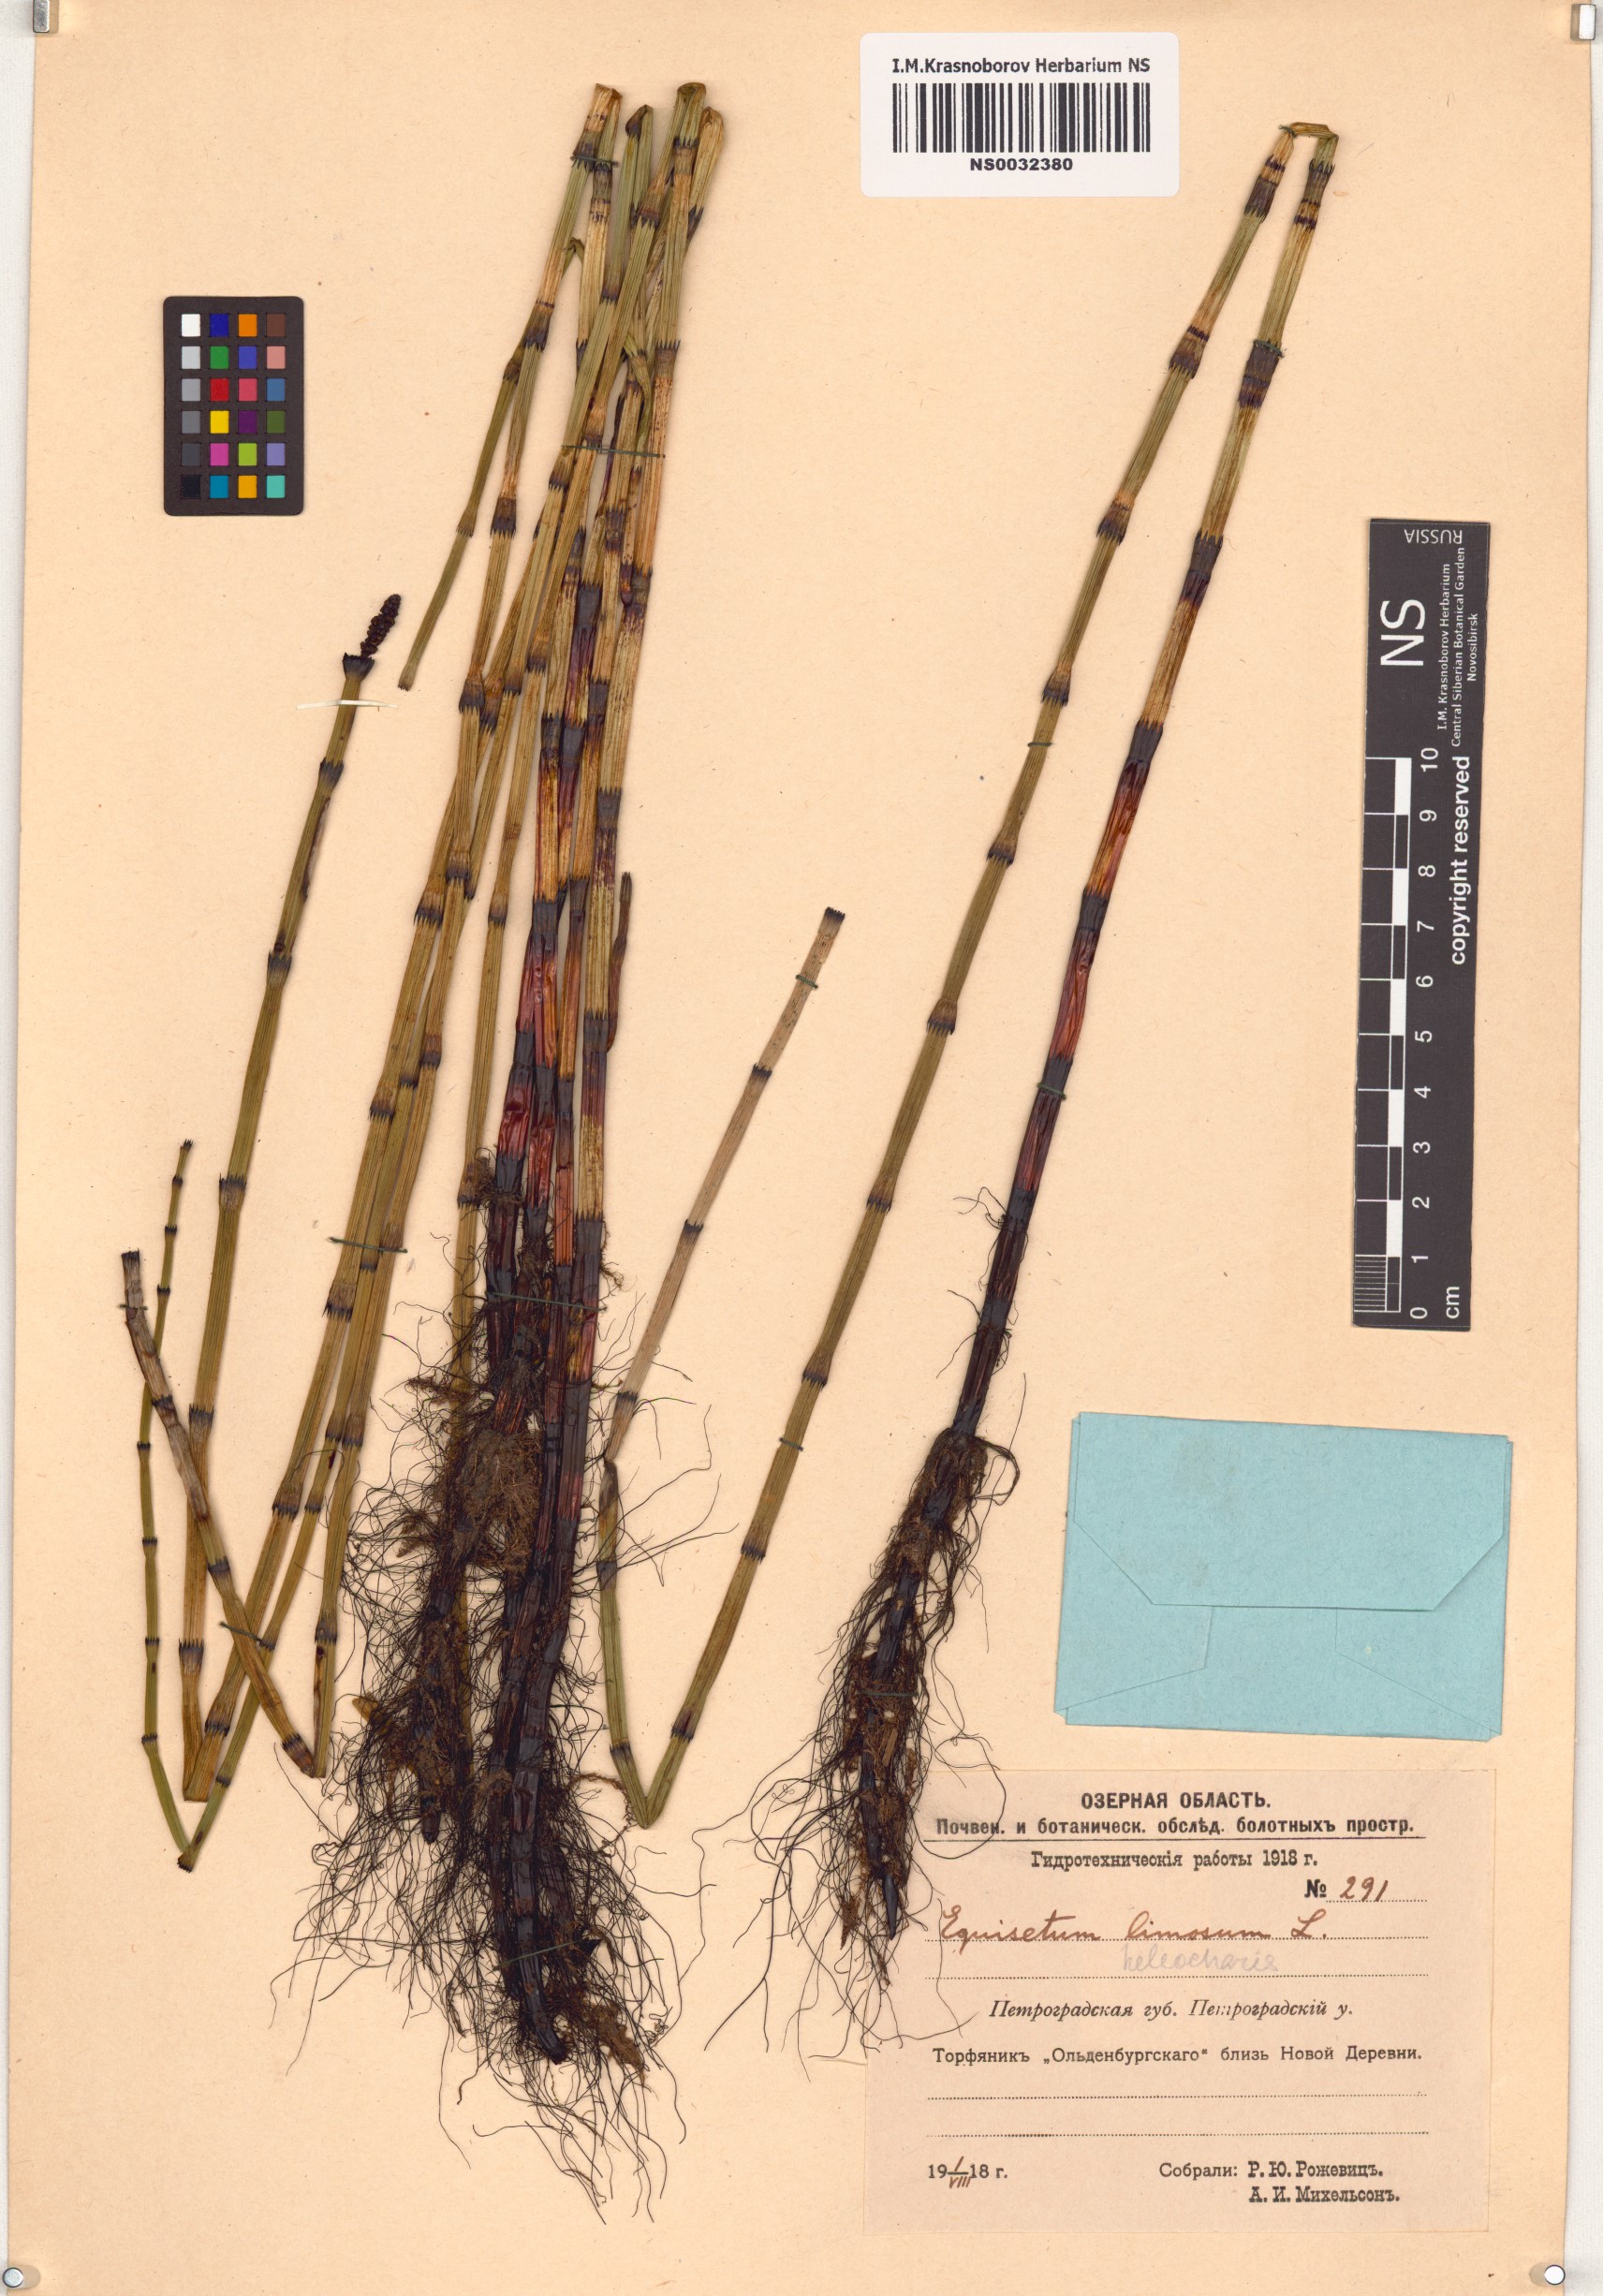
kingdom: Plantae
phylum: Tracheophyta
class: Polypodiopsida
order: Equisetales
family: Equisetaceae
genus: Equisetum
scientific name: Equisetum fluviatile
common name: Water horsetail
